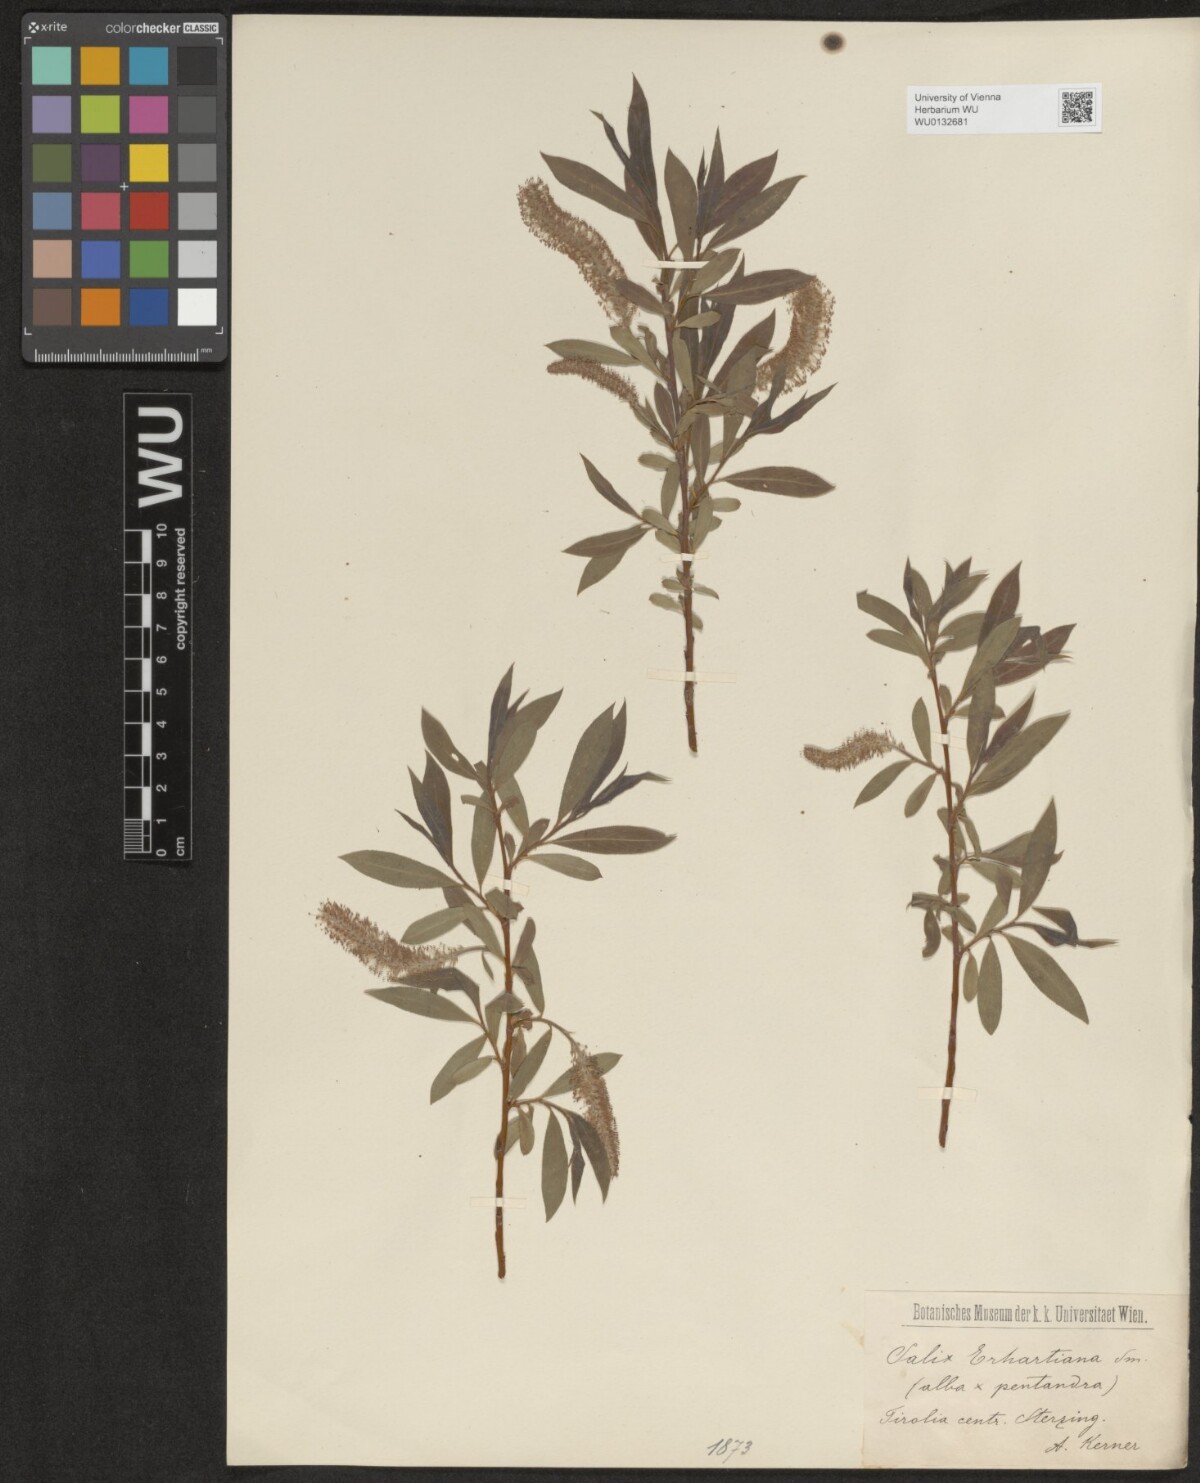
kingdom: Plantae
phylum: Tracheophyta
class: Magnoliopsida
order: Malpighiales
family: Salicaceae
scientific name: Salicaceae
